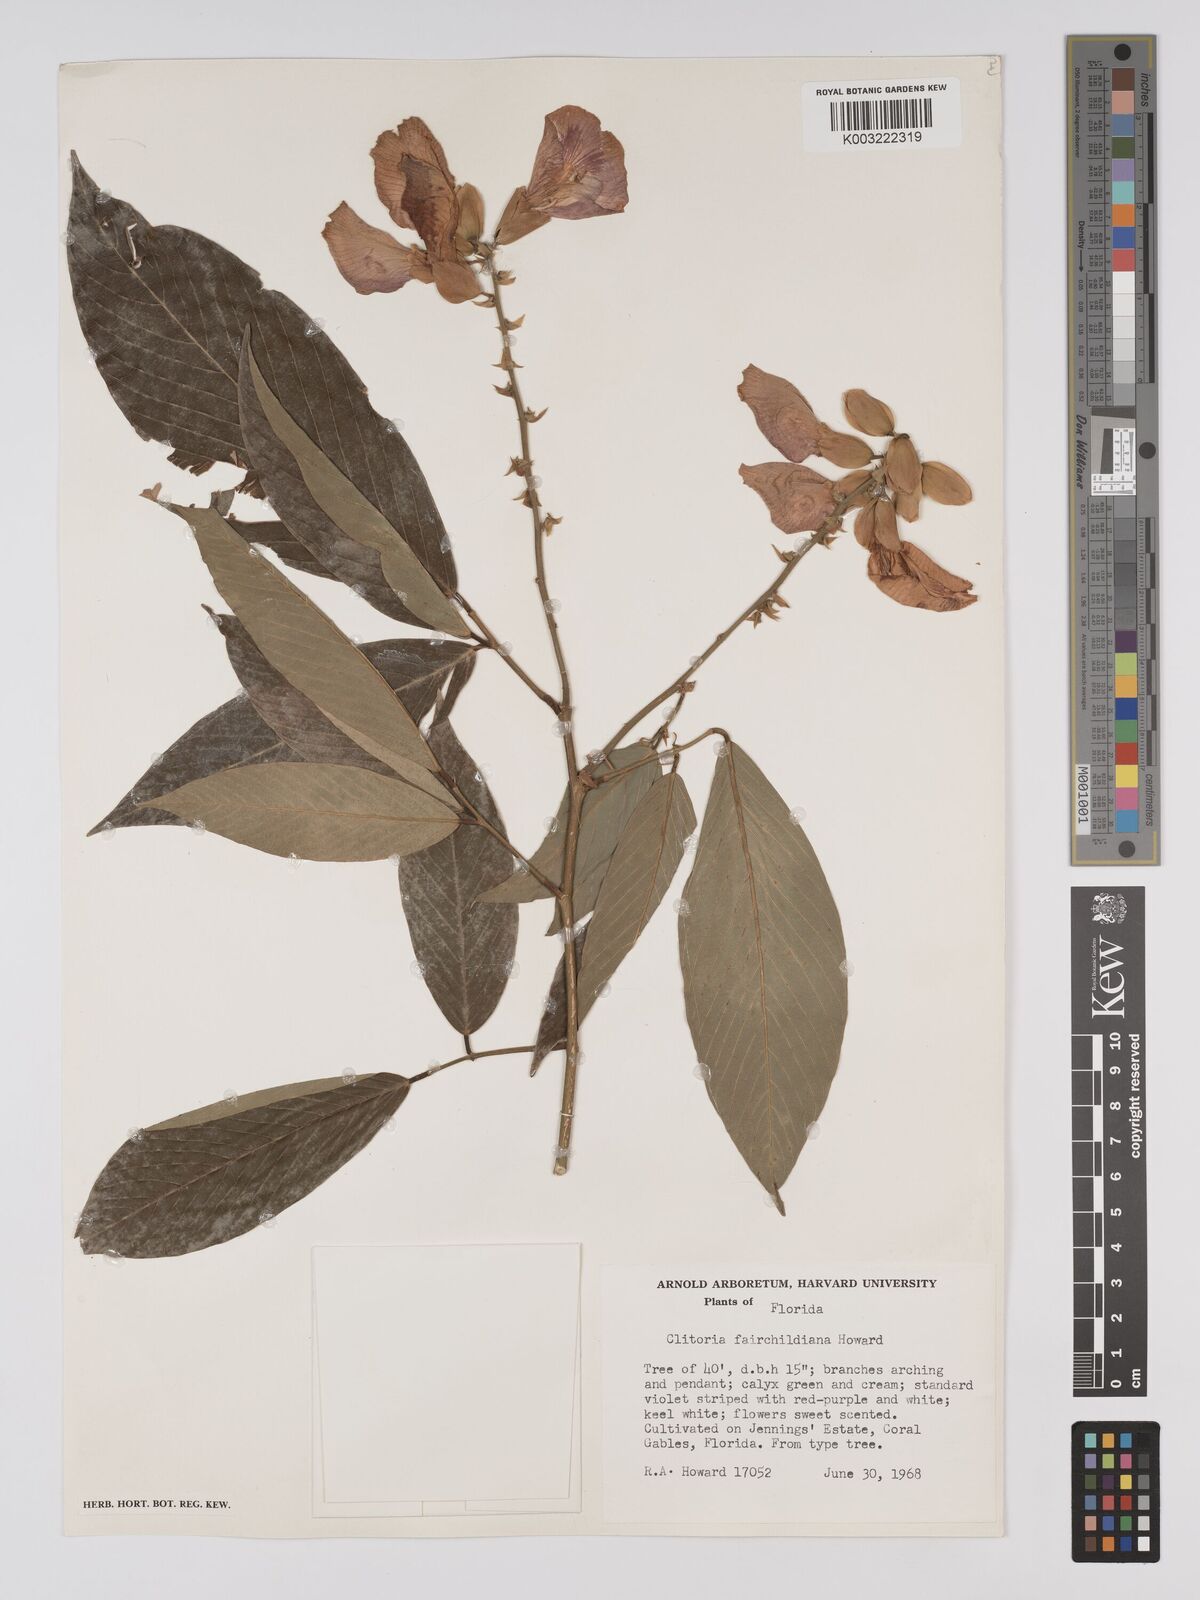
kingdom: Plantae
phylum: Tracheophyta
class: Magnoliopsida
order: Fabales
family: Fabaceae
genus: Clitoria
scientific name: Clitoria fairchildiana
